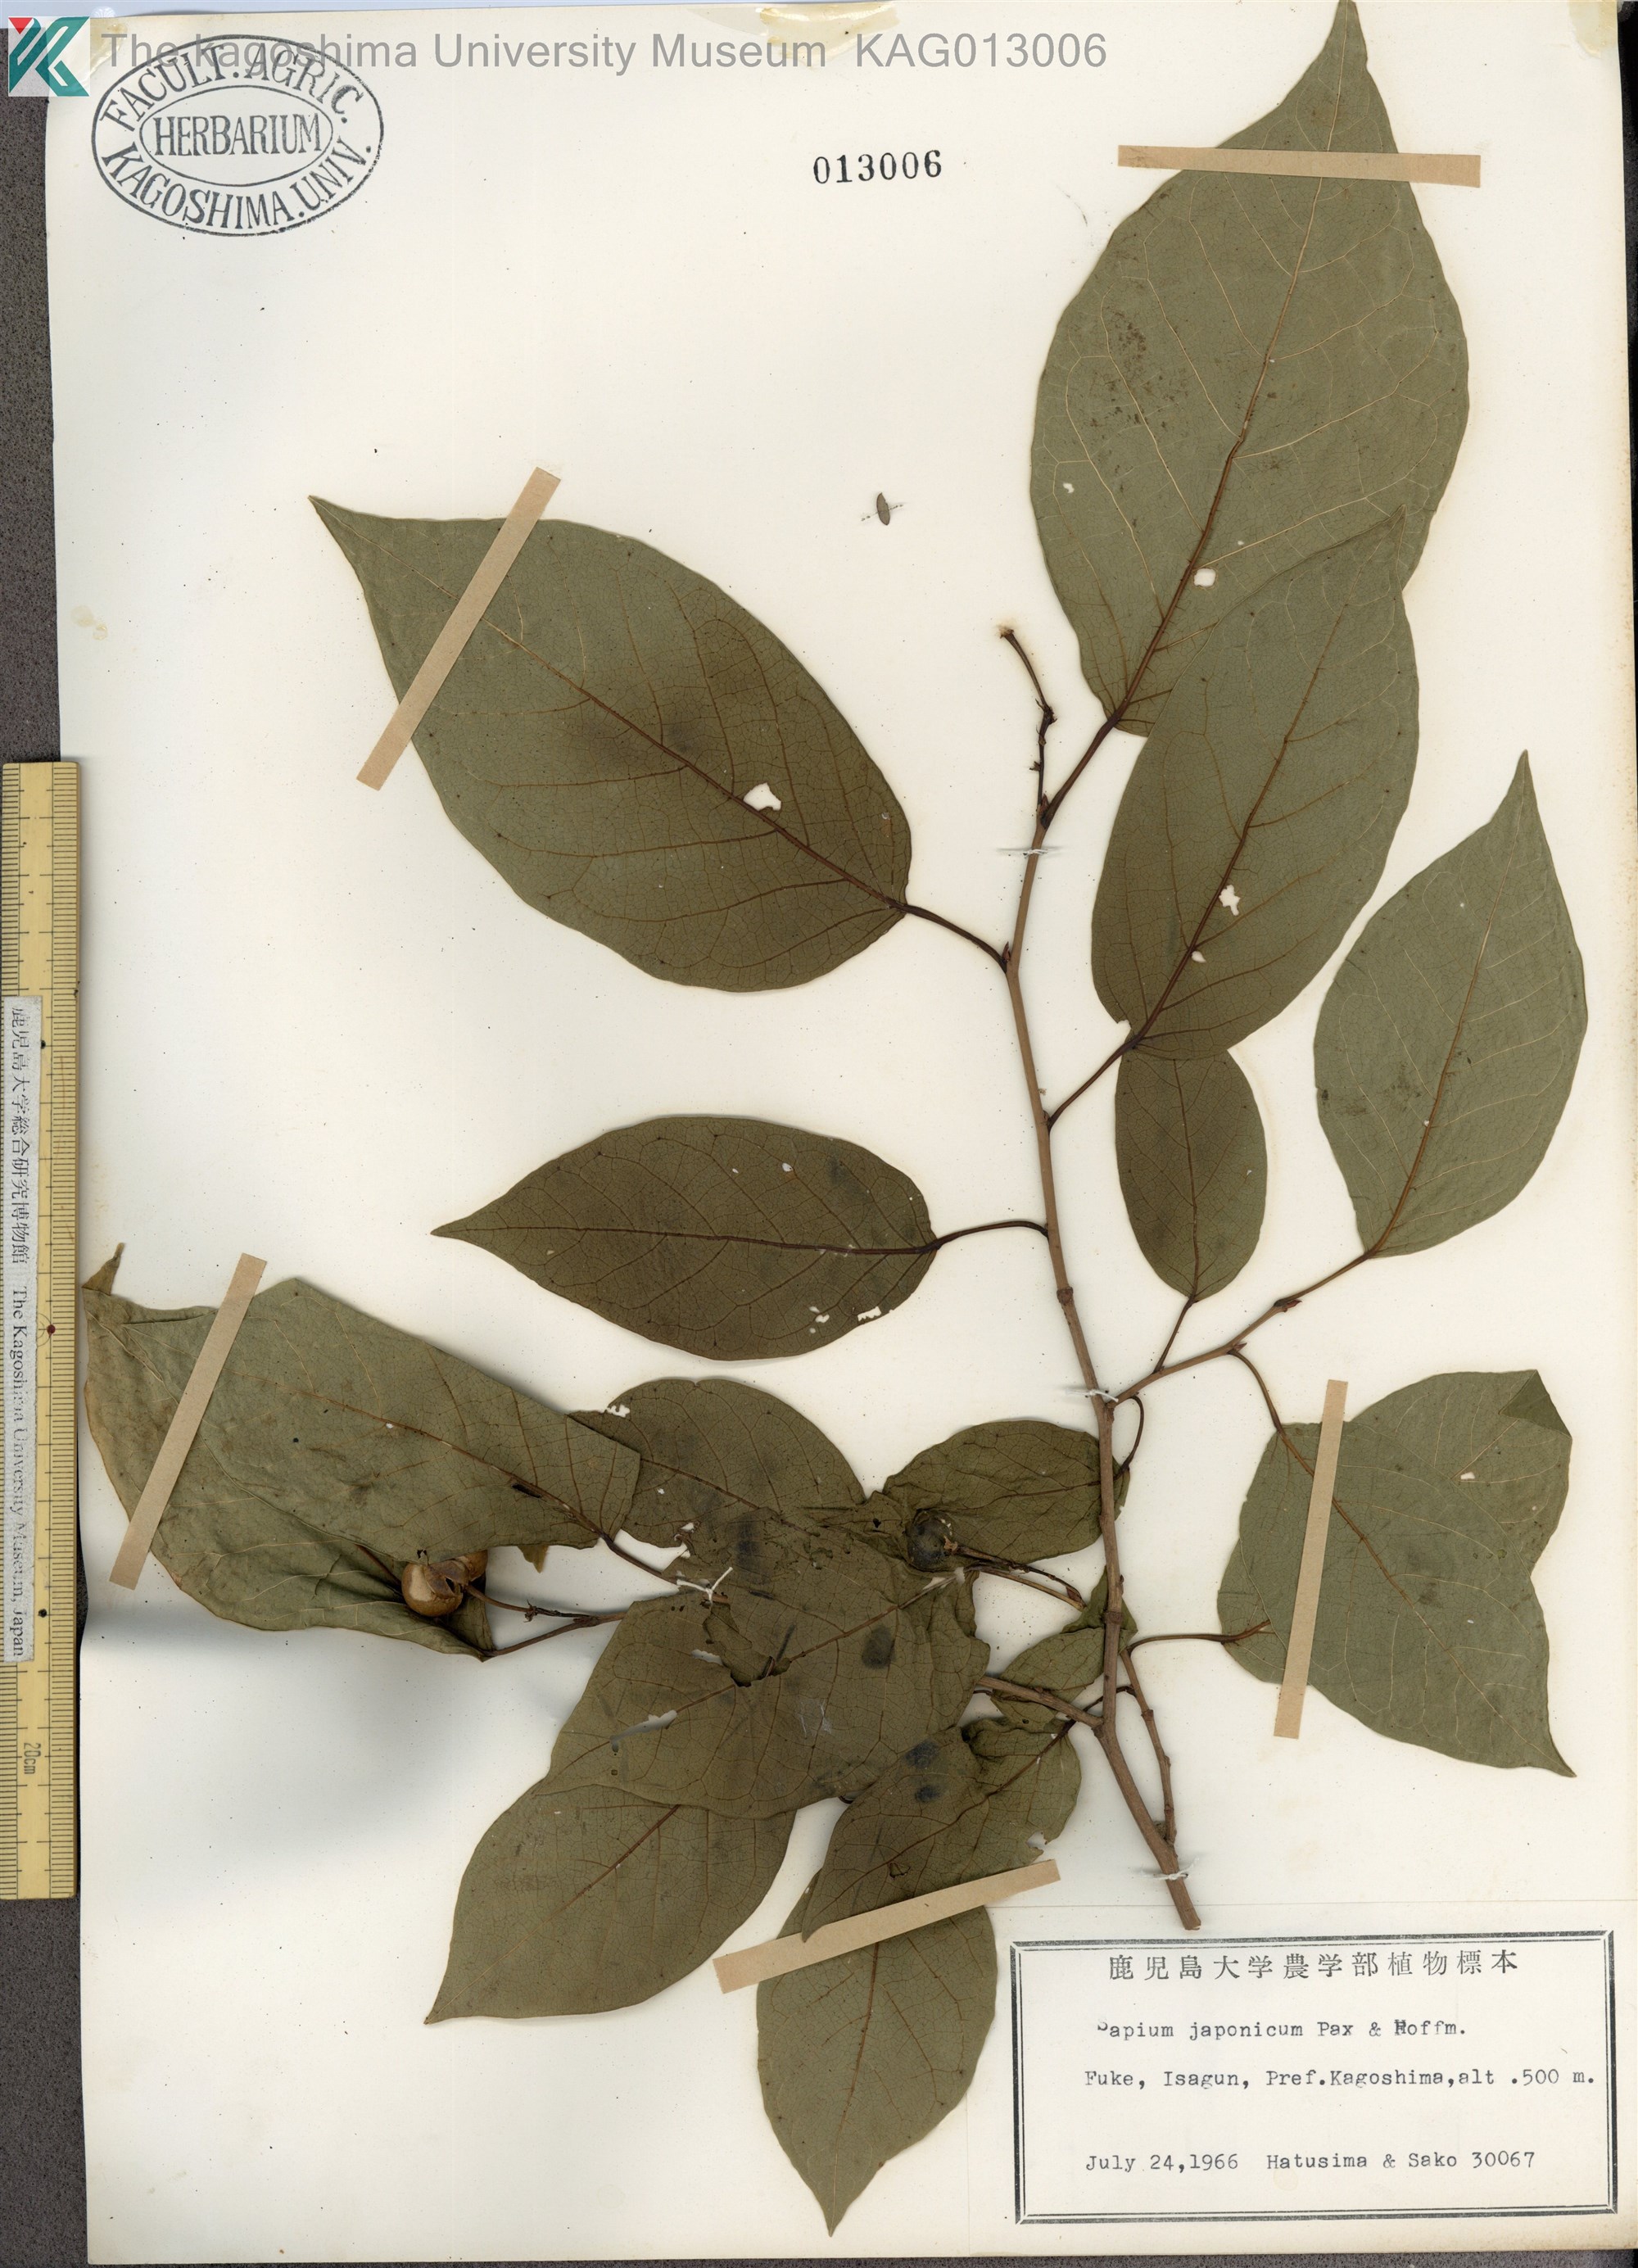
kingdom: Plantae
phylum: Tracheophyta
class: Magnoliopsida
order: Malpighiales
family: Euphorbiaceae
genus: Neoshirakia
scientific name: Neoshirakia japonica
